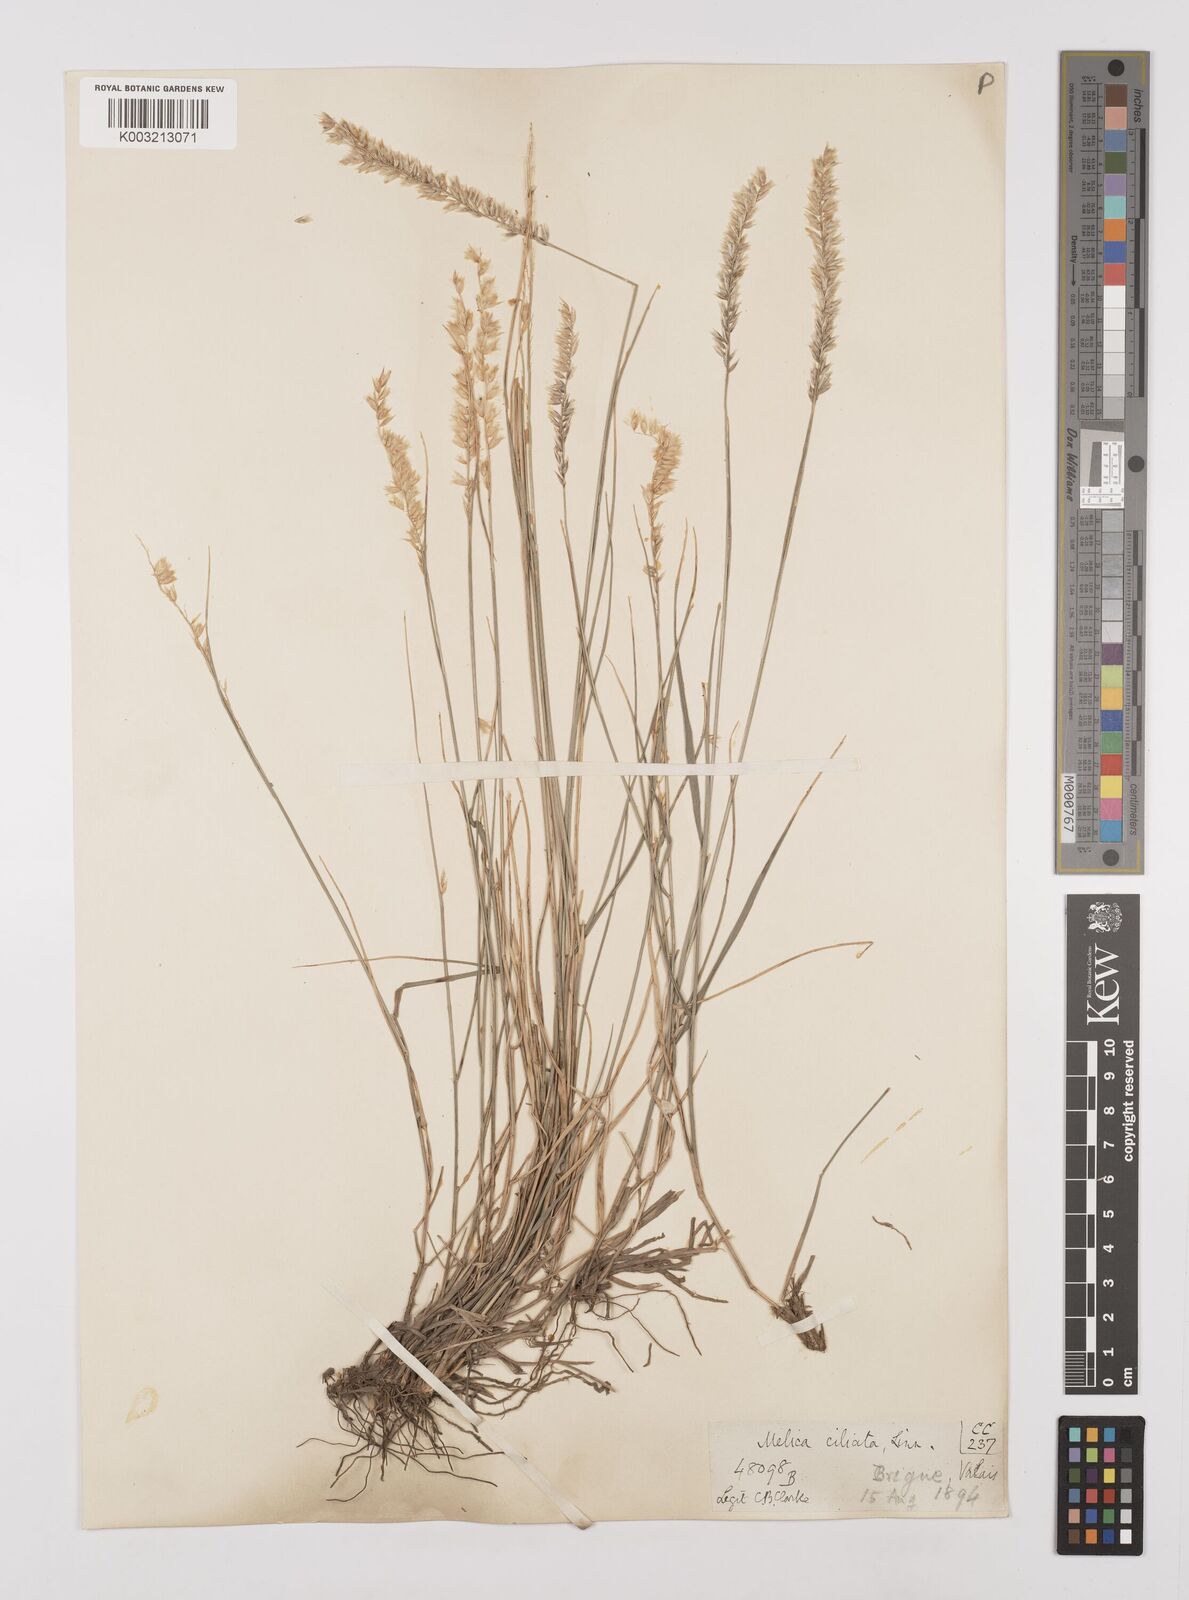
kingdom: Plantae
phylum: Tracheophyta
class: Liliopsida
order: Poales
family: Poaceae
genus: Melica
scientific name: Melica ciliata
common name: Hairy melicgrass
